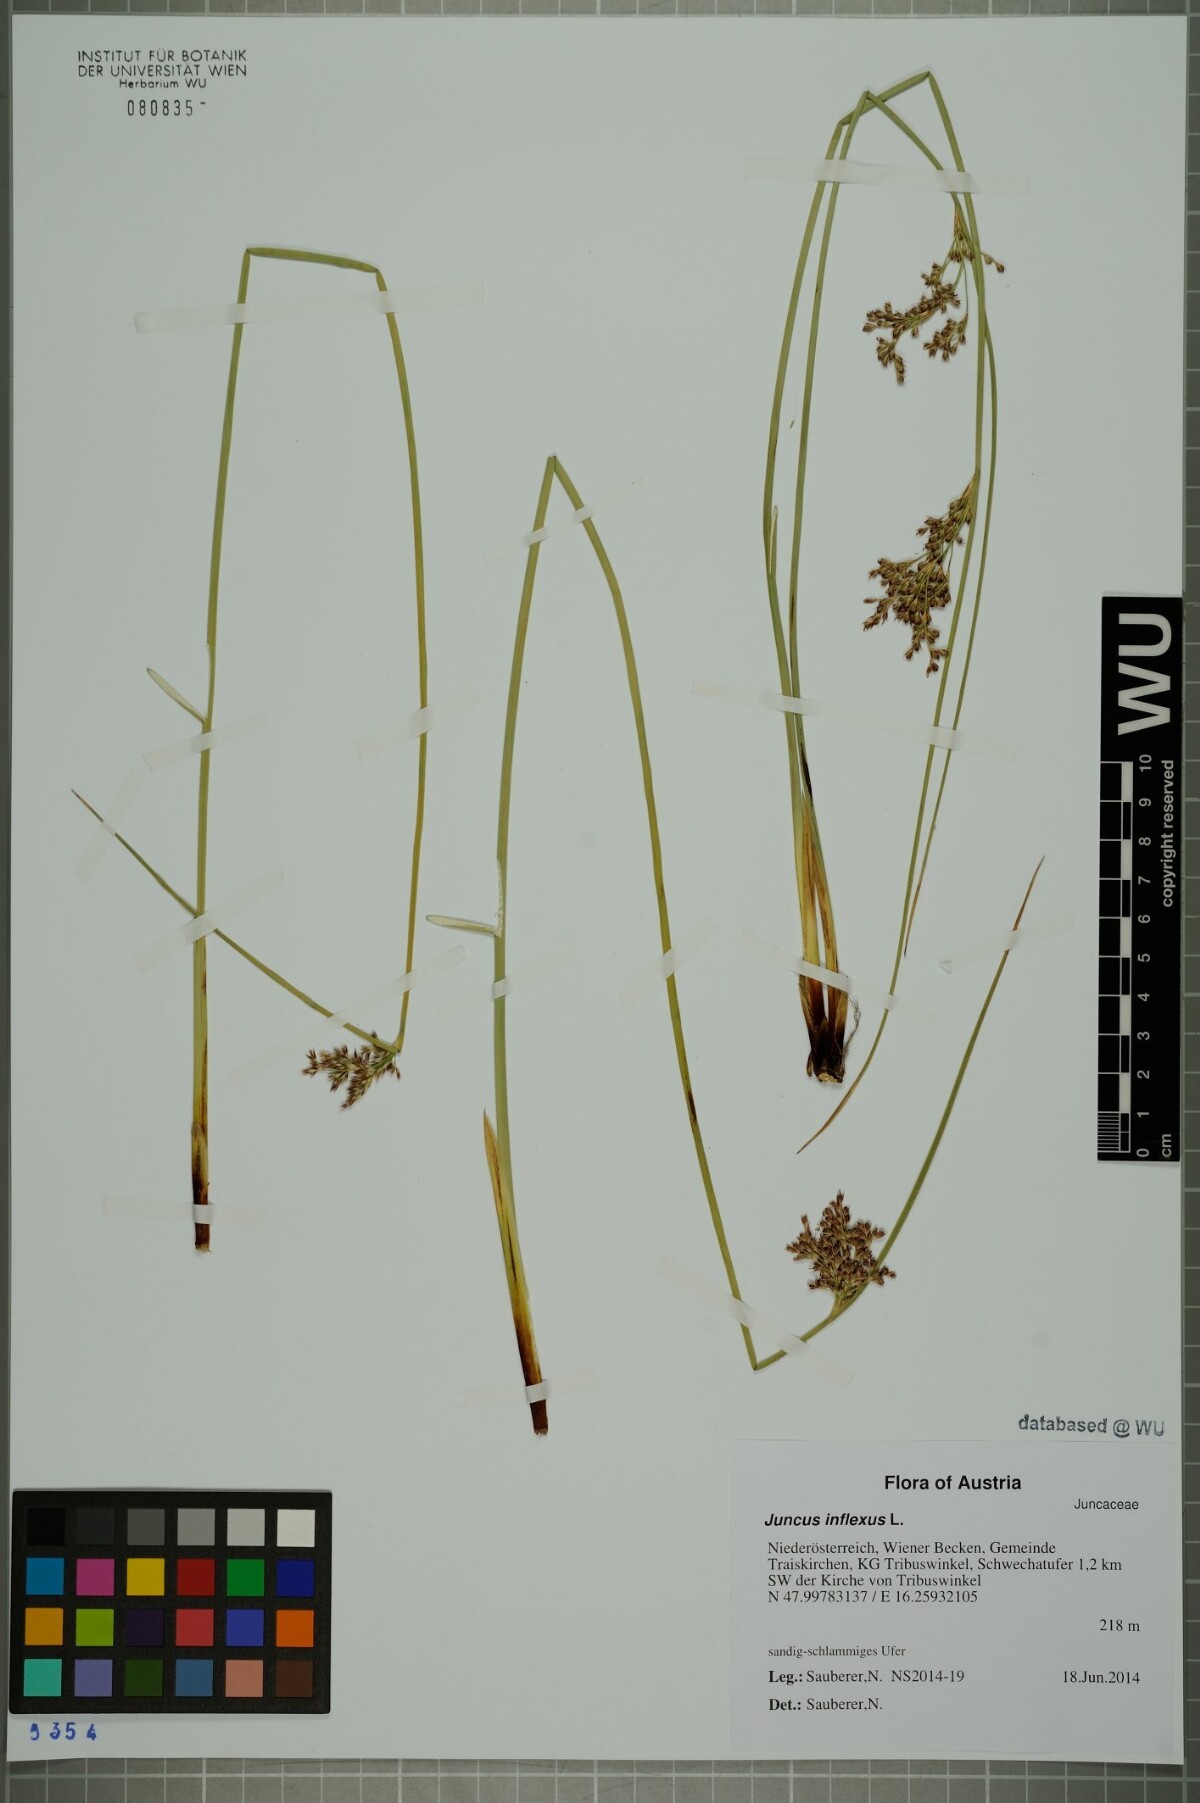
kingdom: Plantae
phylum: Tracheophyta
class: Liliopsida
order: Poales
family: Juncaceae
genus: Juncus
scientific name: Juncus inflexus
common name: Hard rush
